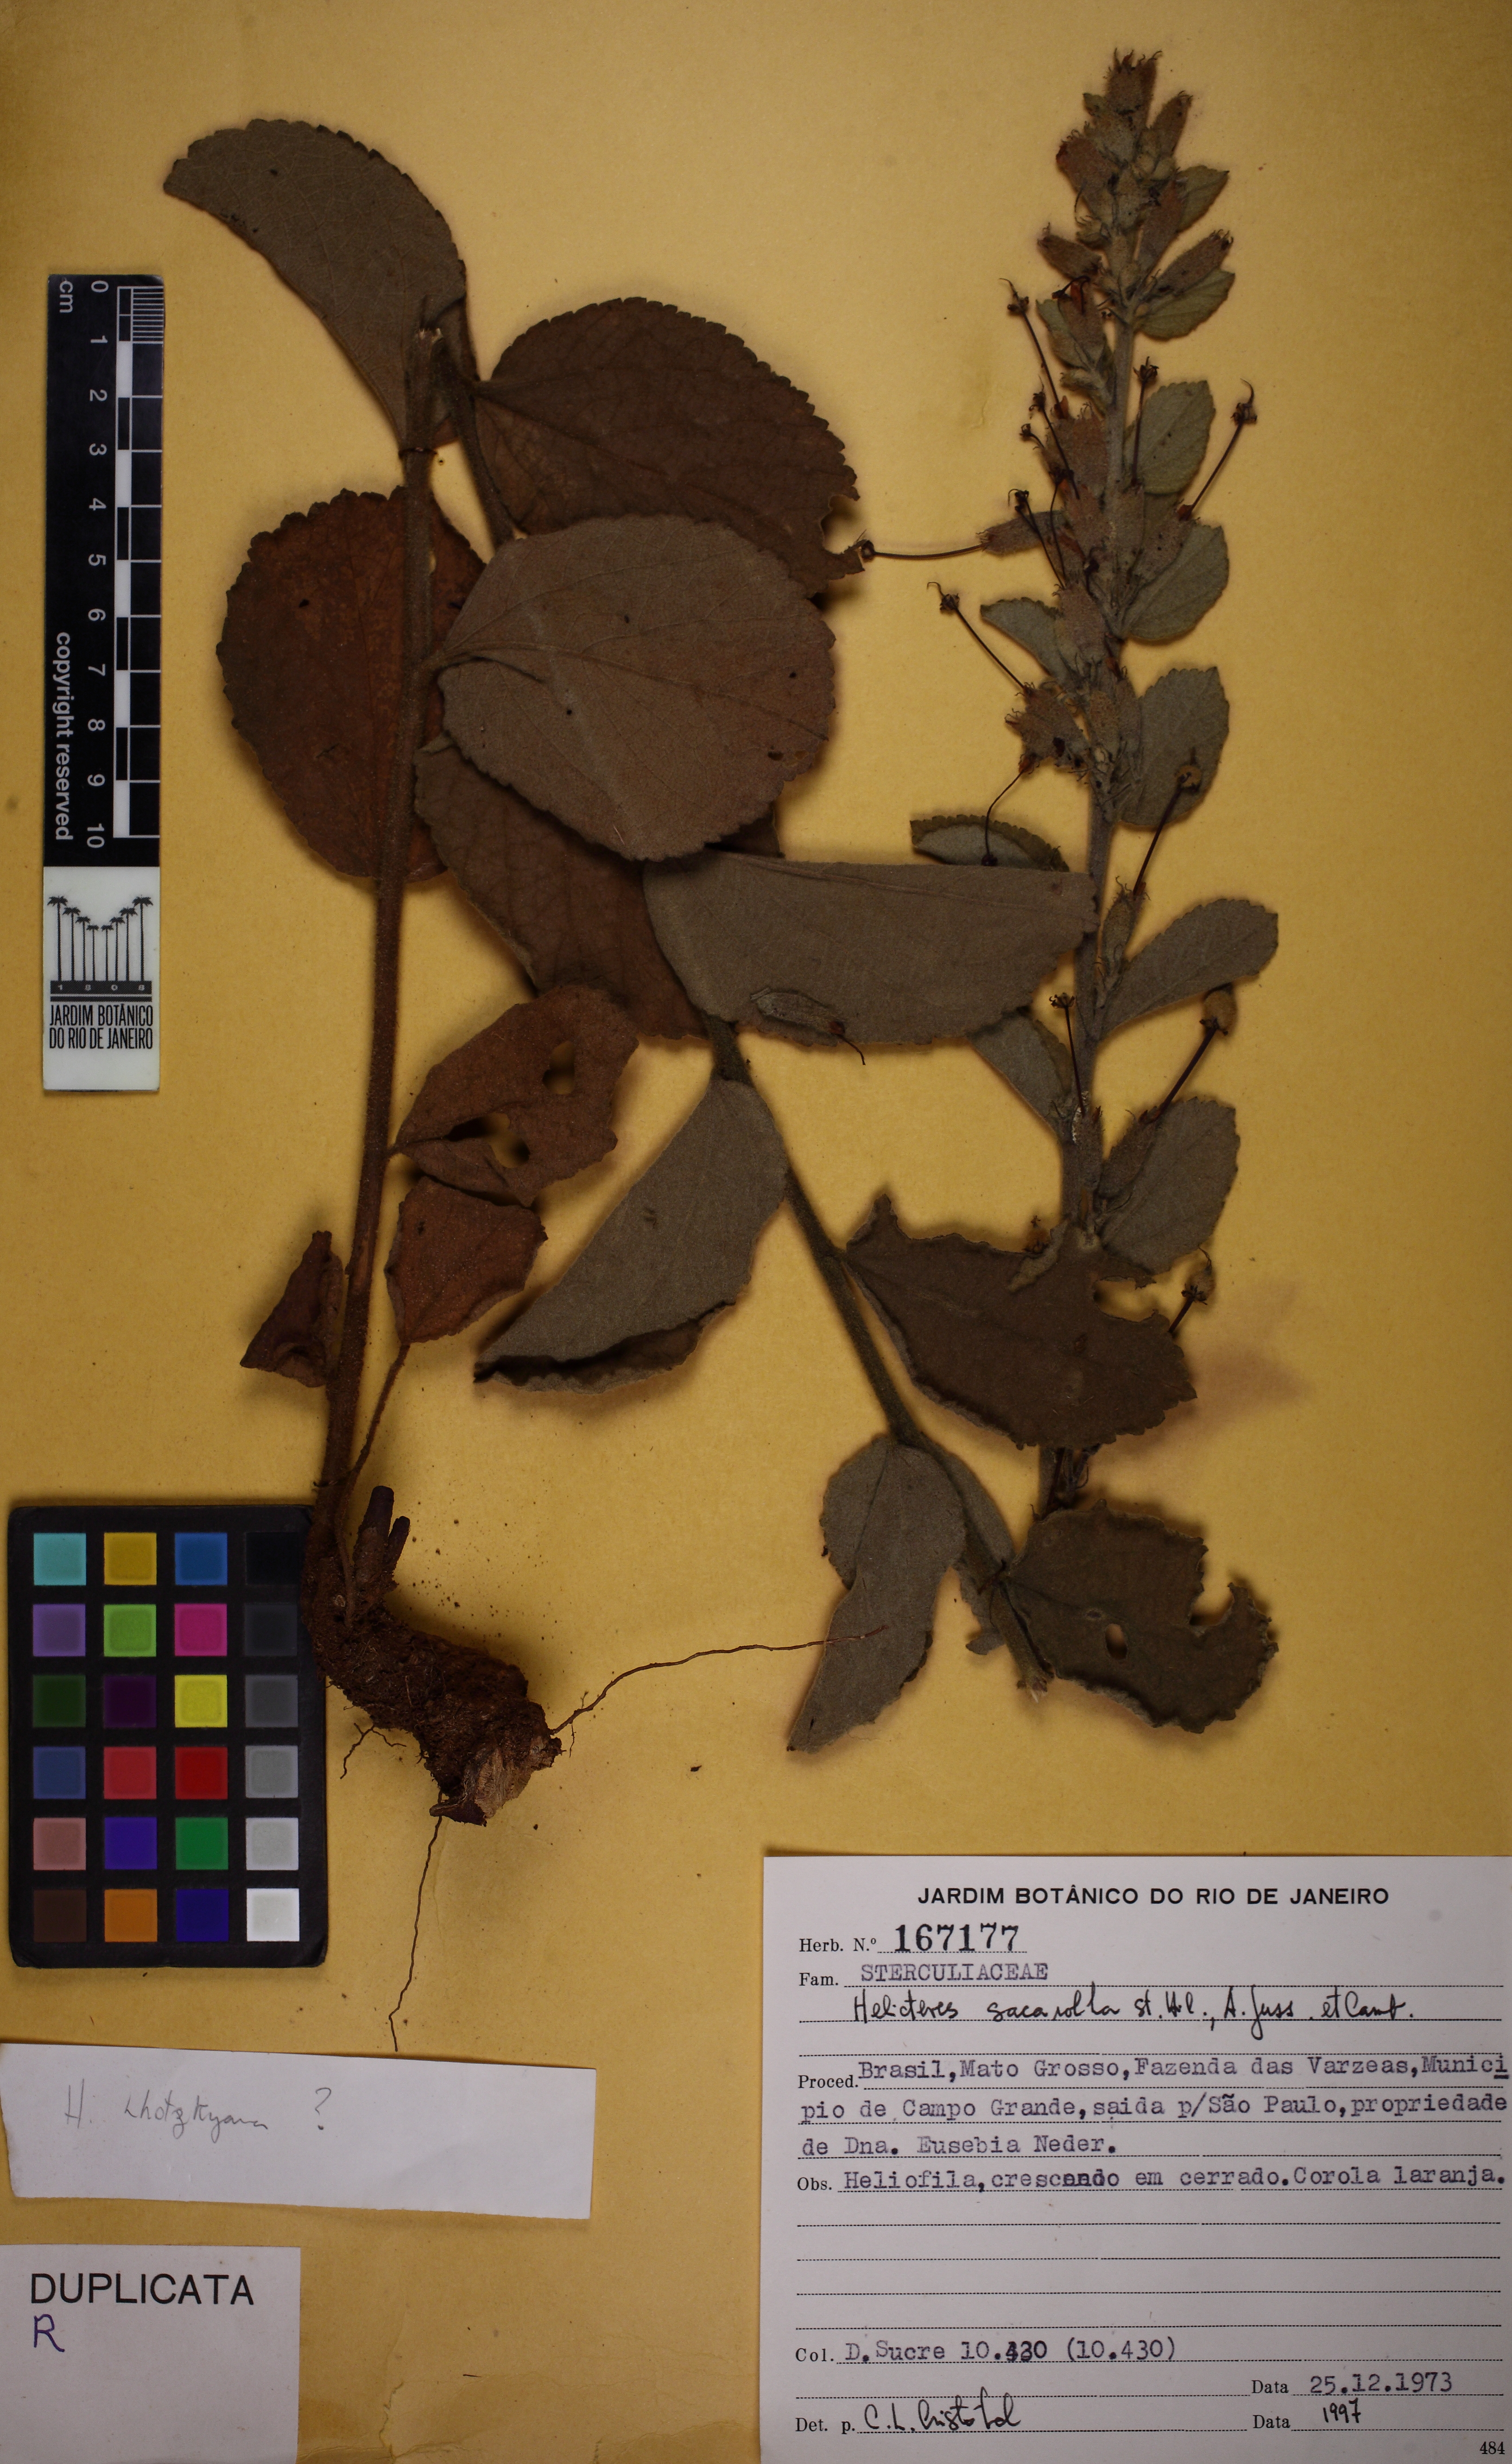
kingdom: Plantae
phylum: Tracheophyta
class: Magnoliopsida
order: Malvales
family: Malvaceae
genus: Helicteres
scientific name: Helicteres sacarolha
